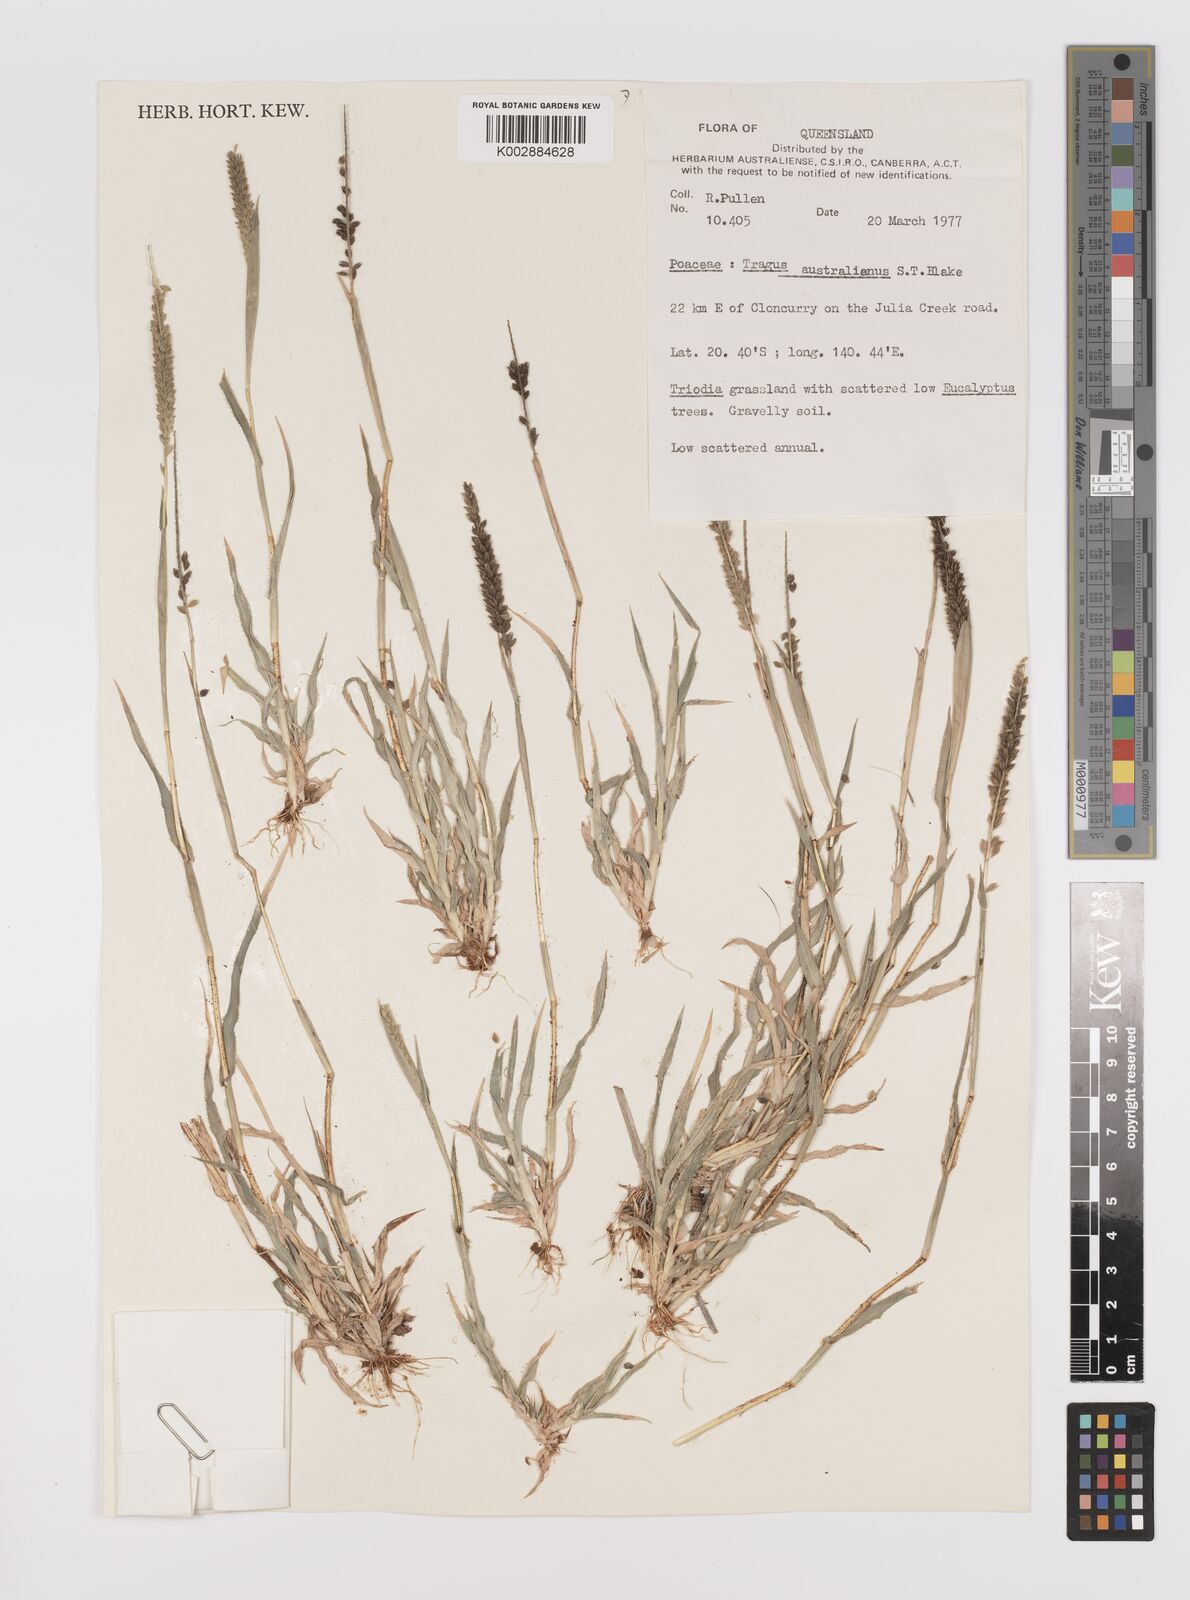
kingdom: Plantae
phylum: Tracheophyta
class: Liliopsida
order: Poales
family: Poaceae
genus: Tragus
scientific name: Tragus australianus
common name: Australian bur-grass
